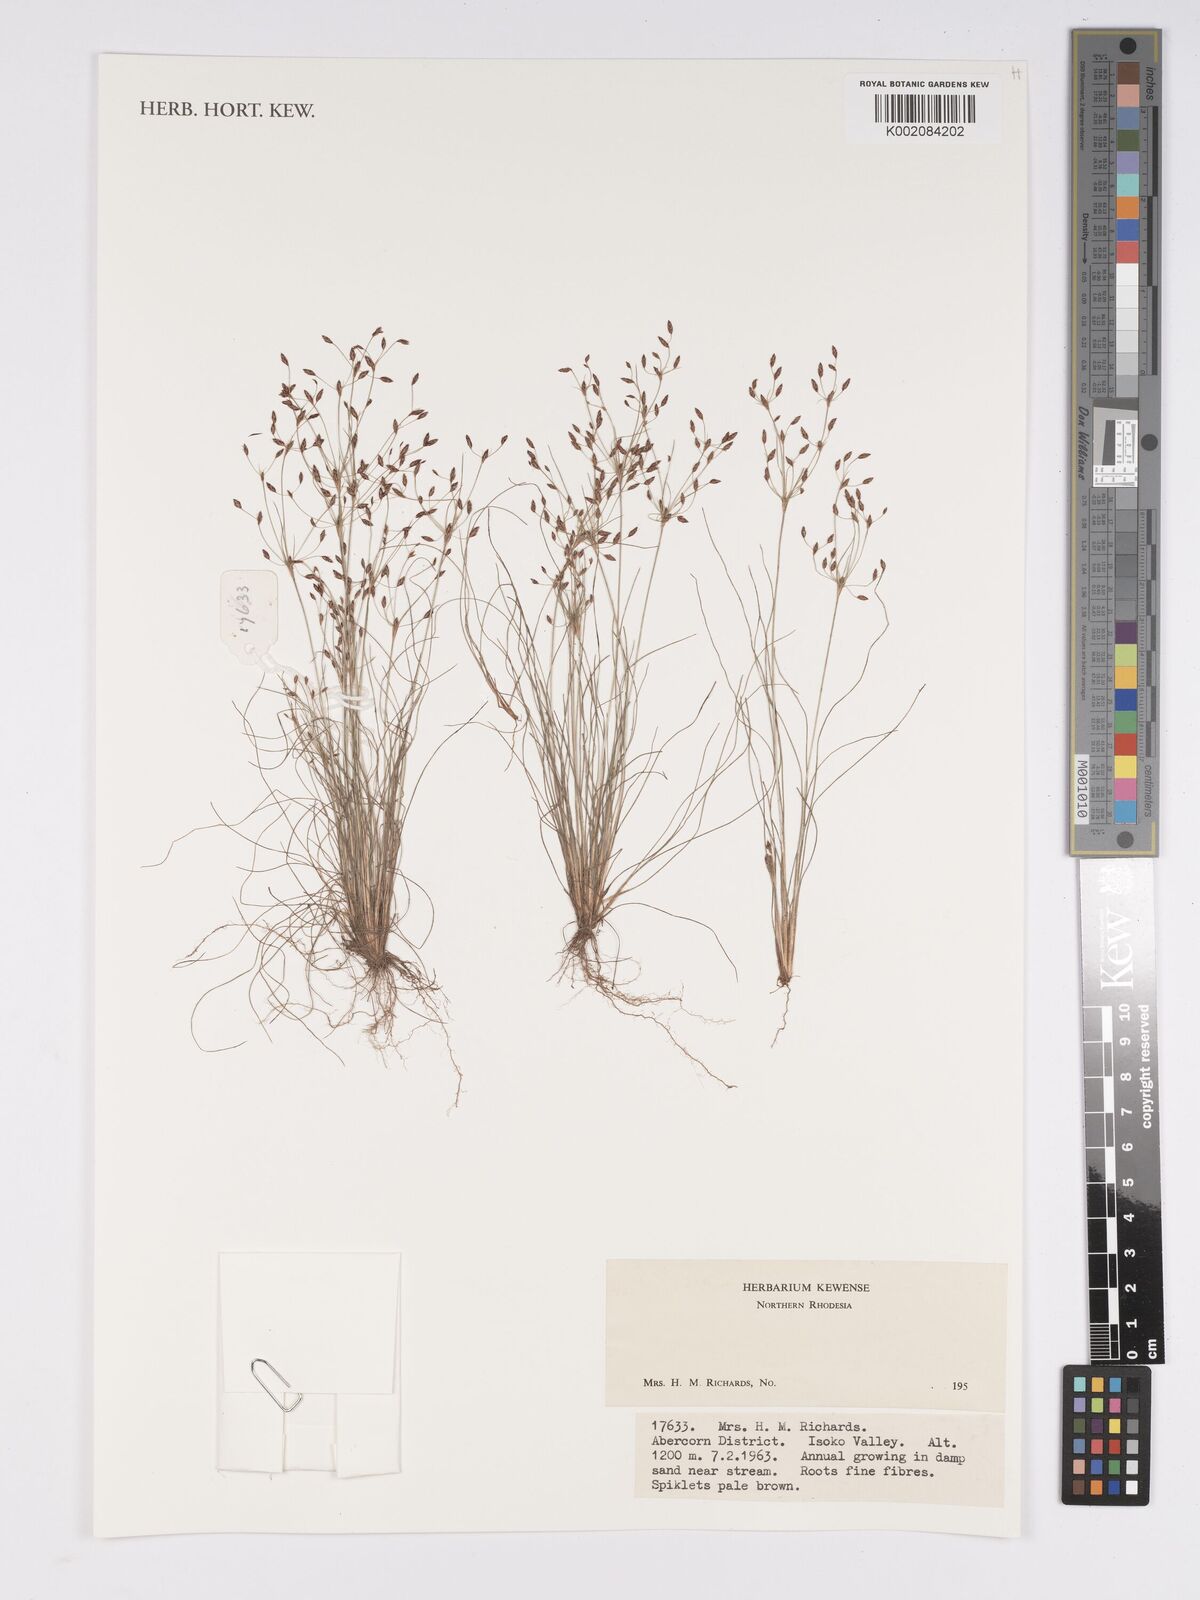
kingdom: Plantae
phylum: Tracheophyta
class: Liliopsida
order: Poales
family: Cyperaceae
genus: Bulbostylis
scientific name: Bulbostylis
